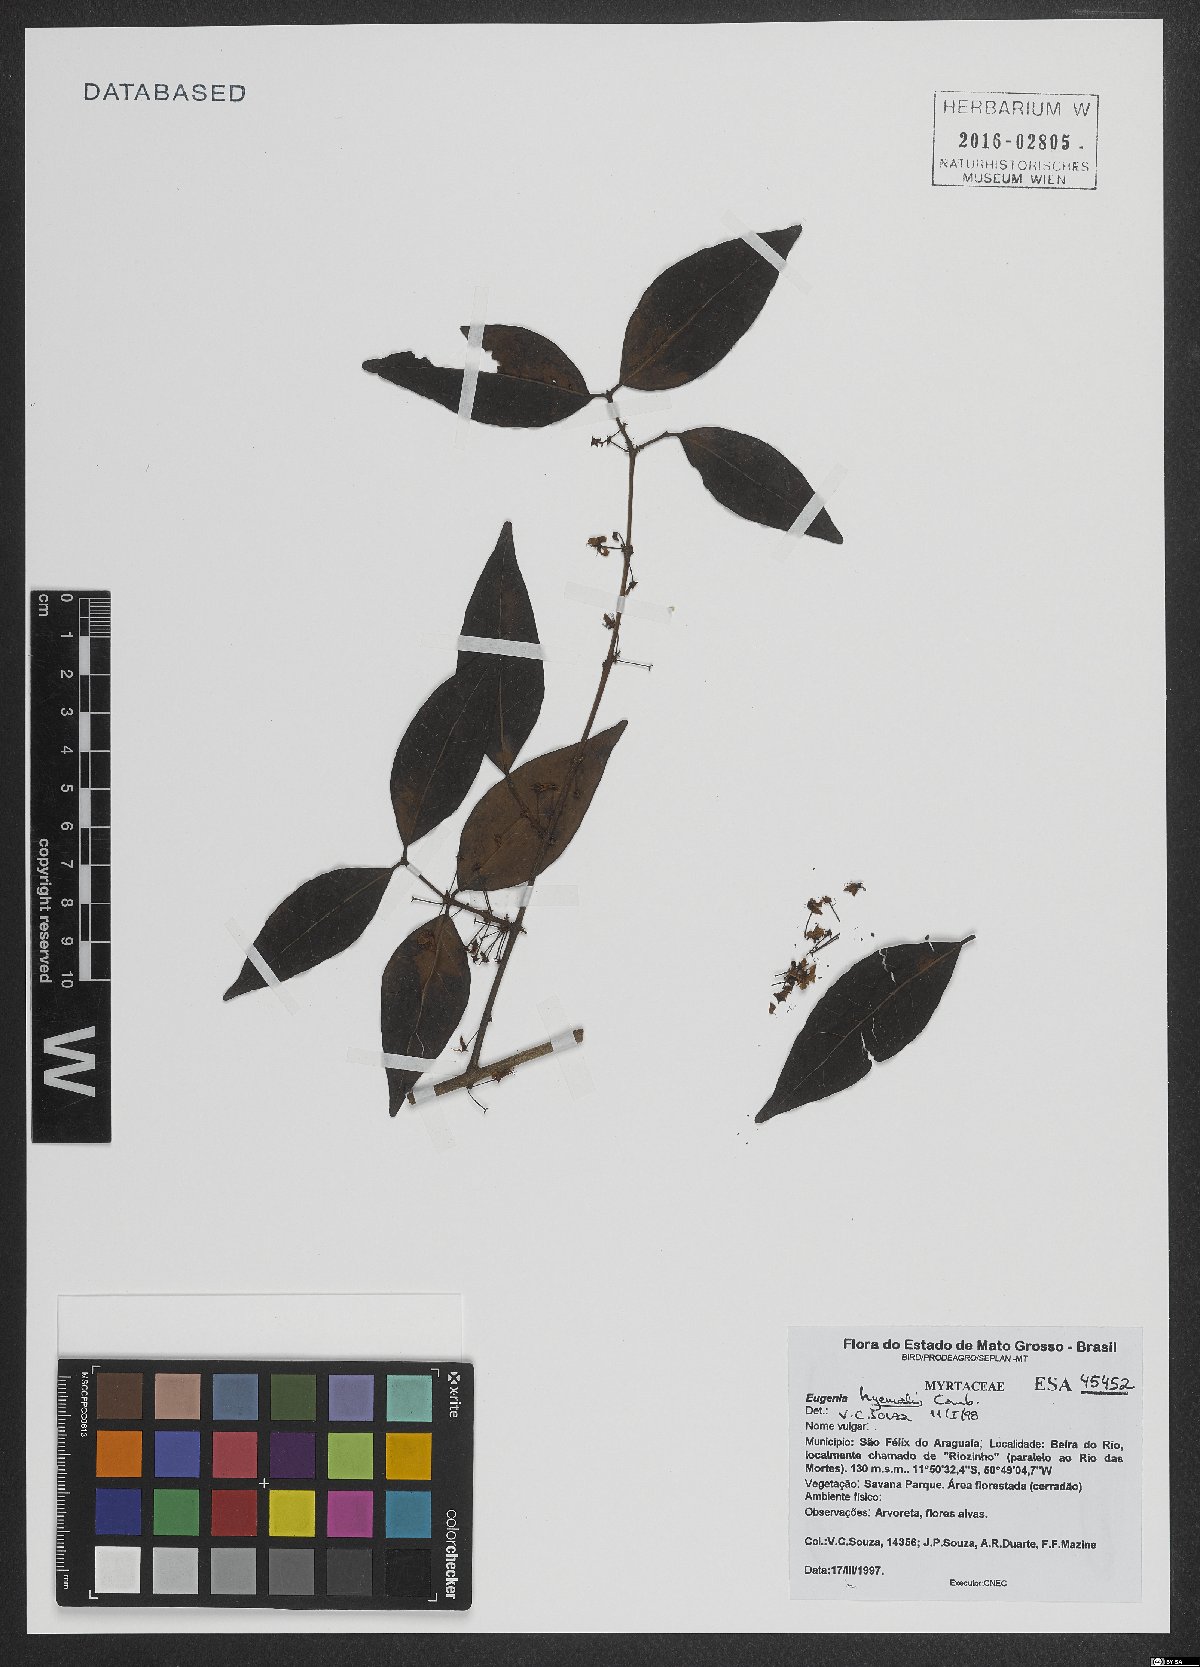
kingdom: Plantae
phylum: Tracheophyta
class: Magnoliopsida
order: Myrtales
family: Myrtaceae
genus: Eugenia
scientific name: Eugenia hiemalis
